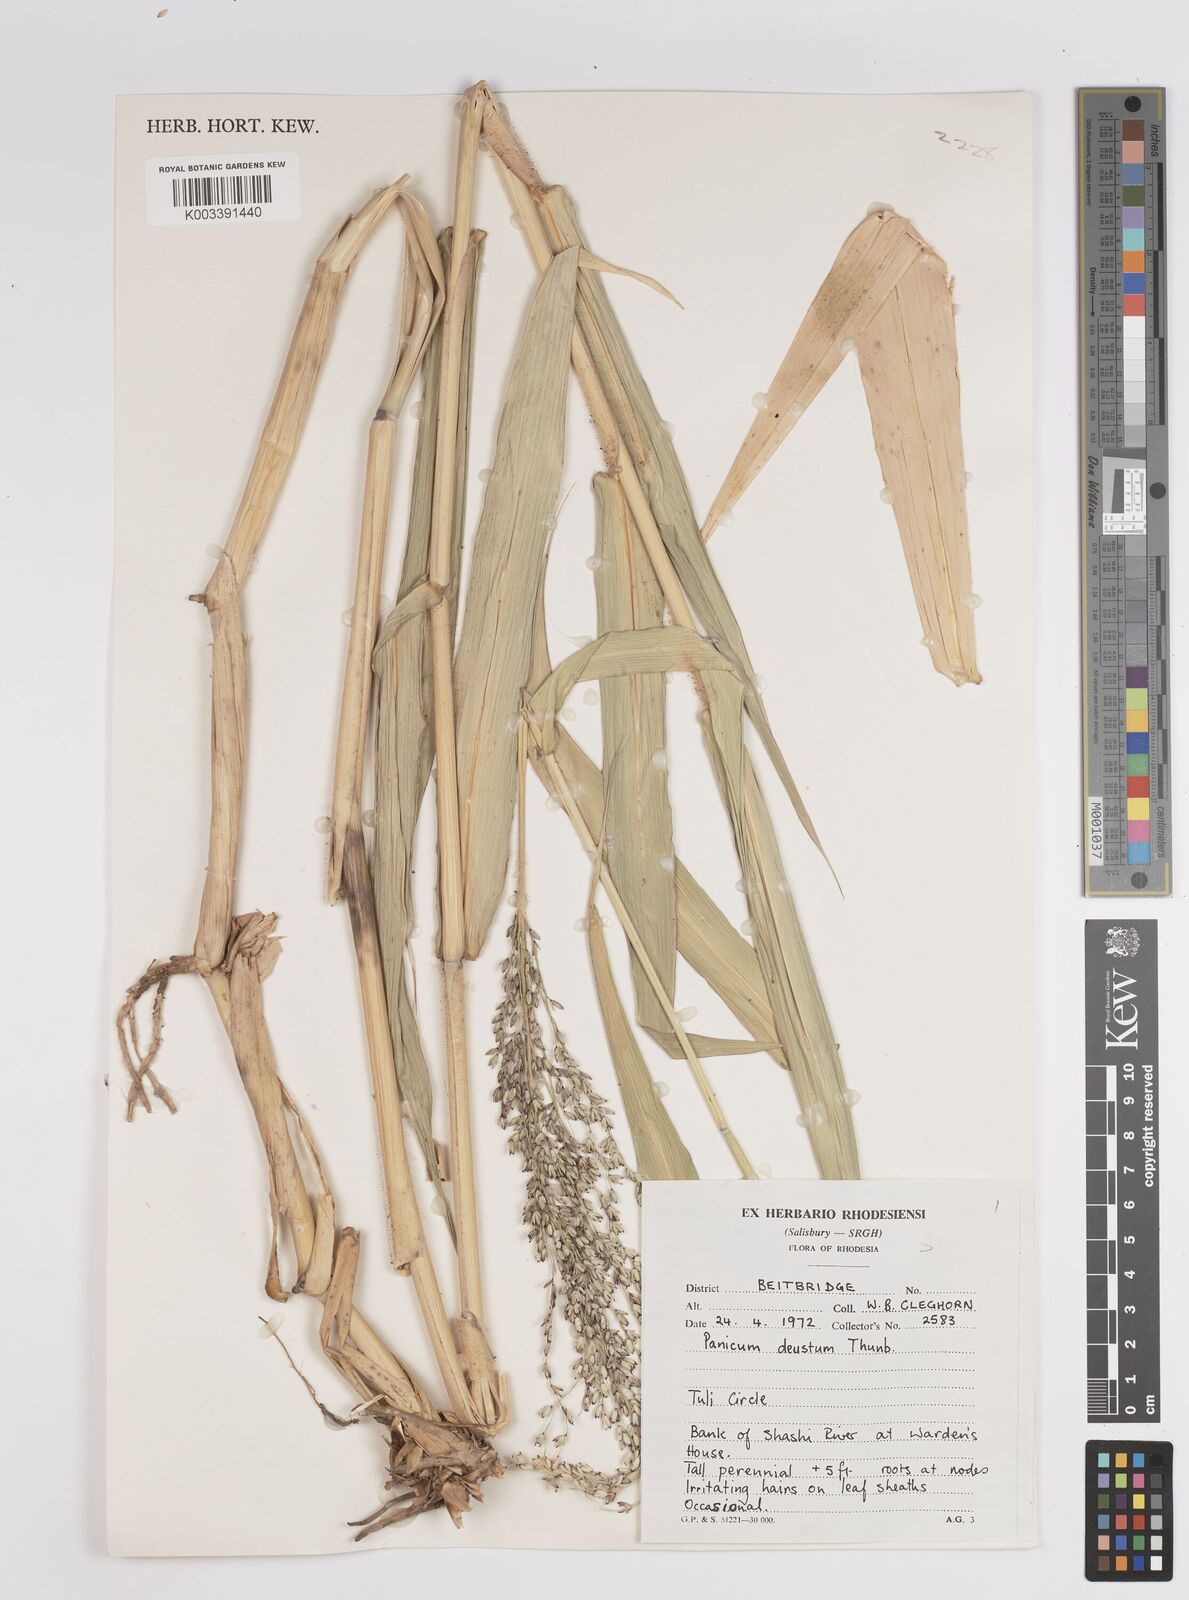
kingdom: Plantae
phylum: Tracheophyta
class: Liliopsida
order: Poales
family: Poaceae
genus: Panicum
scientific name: Panicum deustum
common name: Reed panicum
